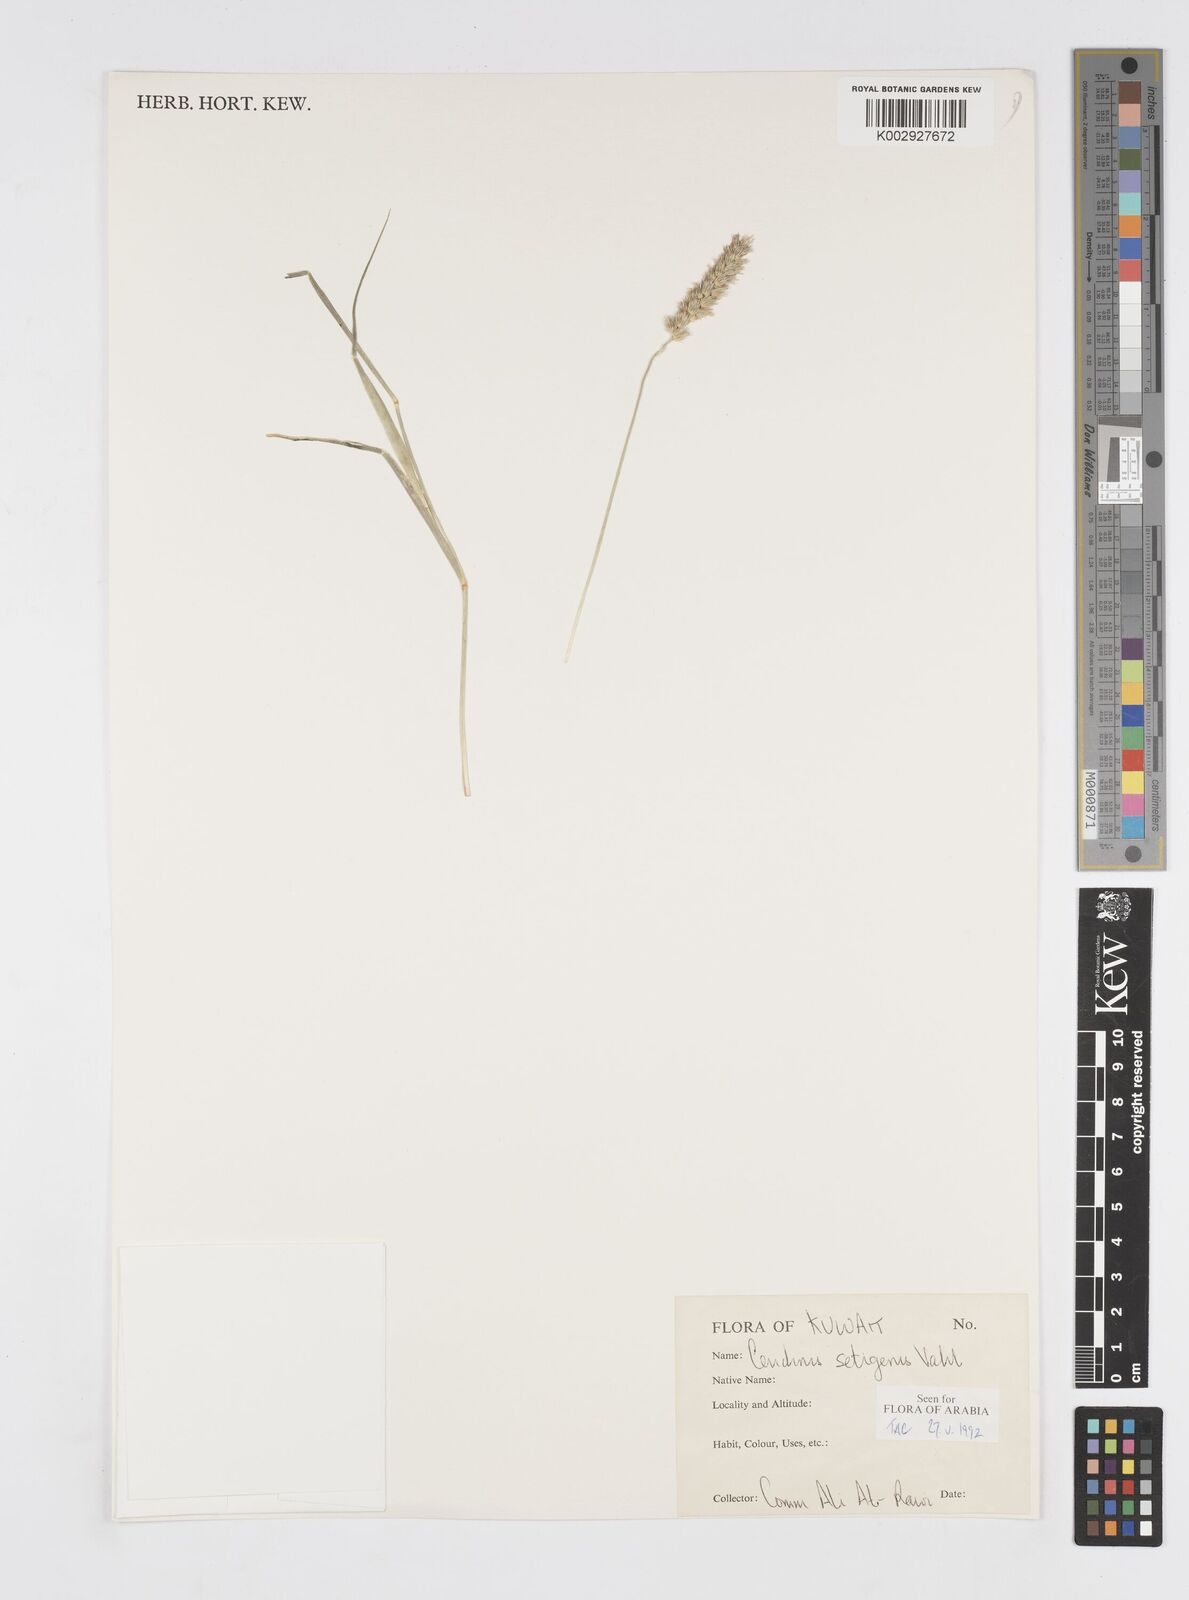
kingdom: Plantae
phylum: Tracheophyta
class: Liliopsida
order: Poales
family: Poaceae
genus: Cenchrus
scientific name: Cenchrus setigerus
